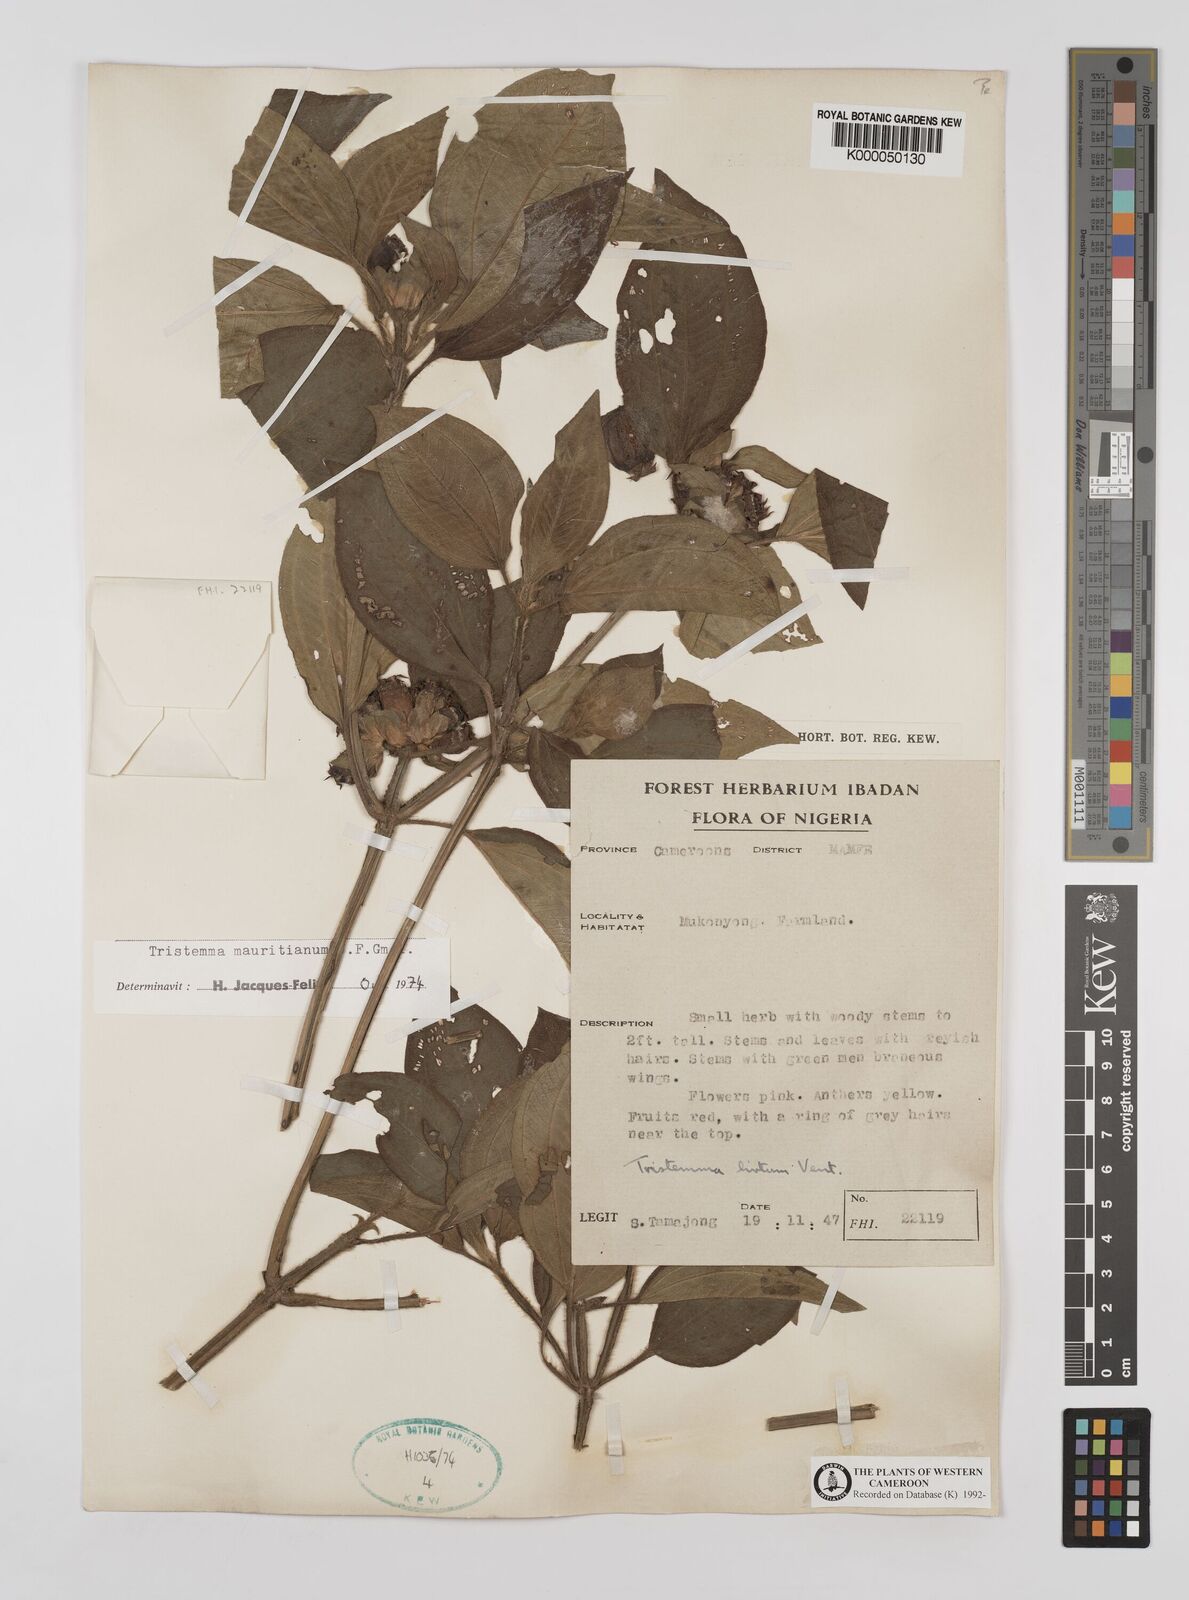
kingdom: Plantae
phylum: Tracheophyta
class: Magnoliopsida
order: Myrtales
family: Melastomataceae
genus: Tristemma
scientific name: Tristemma
